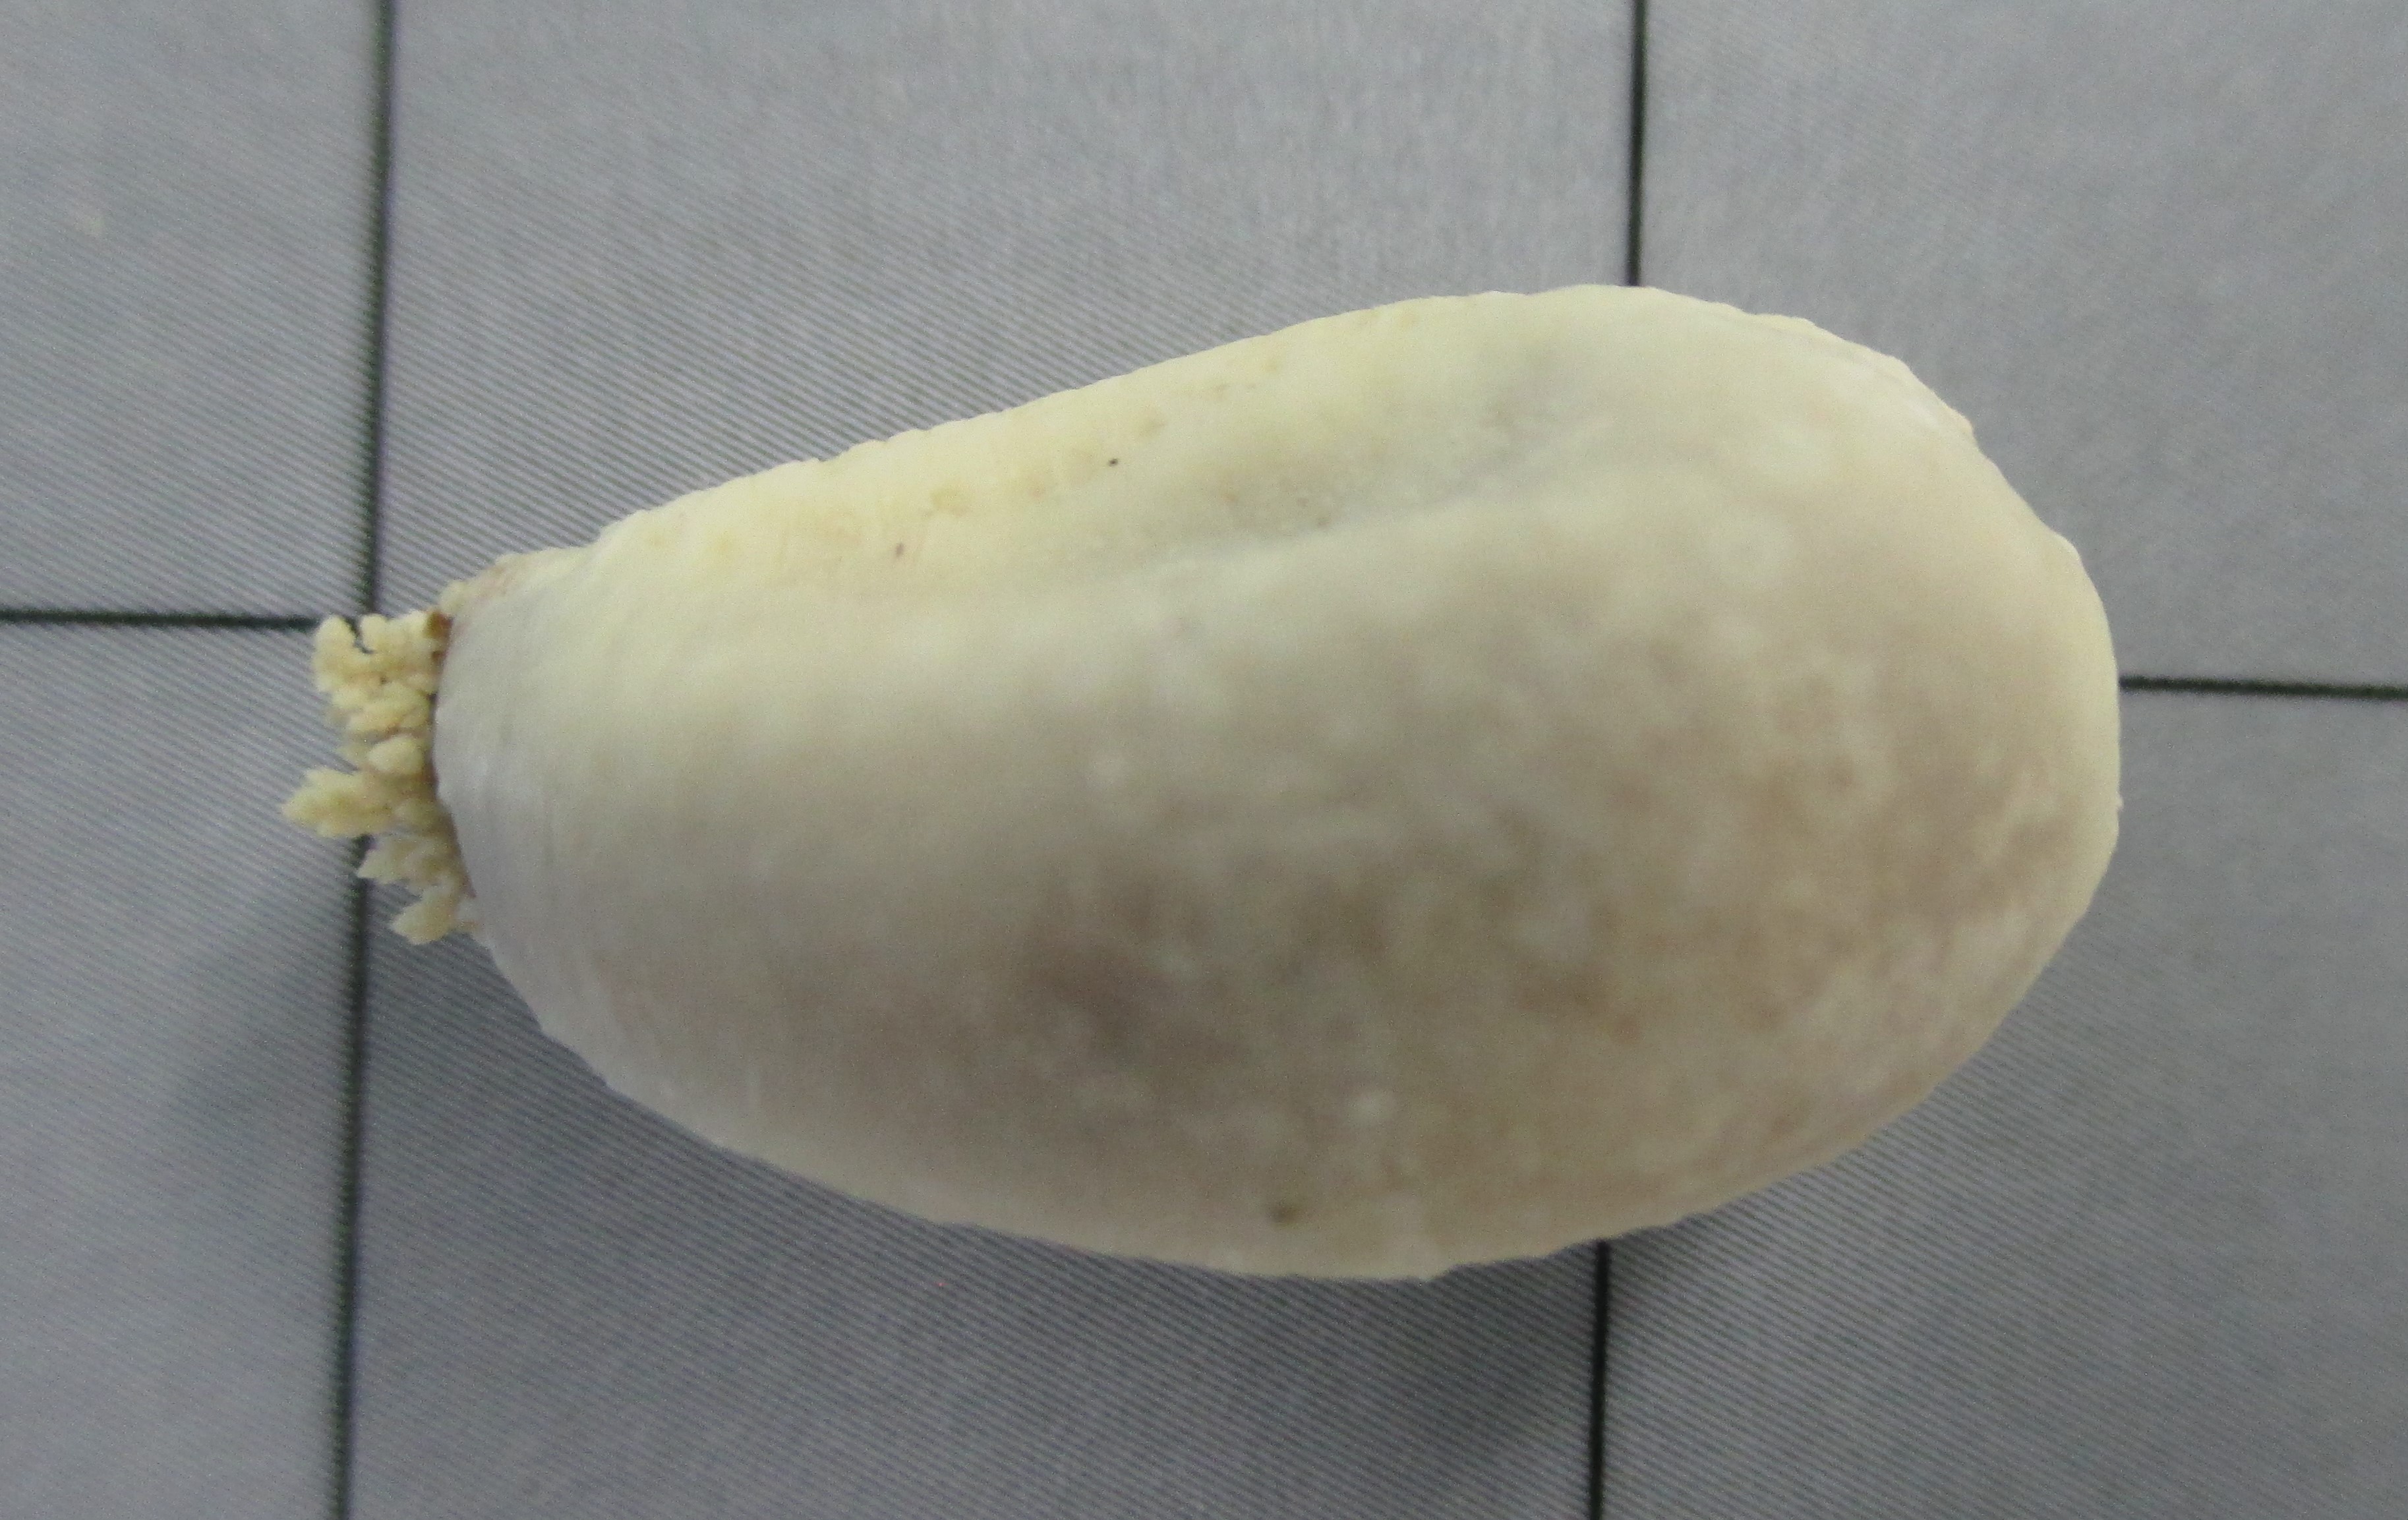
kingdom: Animalia
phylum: Echinodermata
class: Holothuroidea
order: Dendrochirotida
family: Cucumariidae
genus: Hemiocnus
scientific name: Hemiocnus insolens
